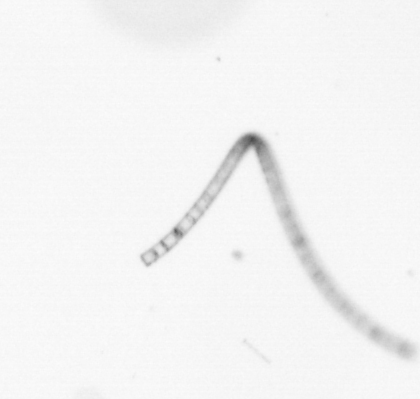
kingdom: Chromista
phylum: Ochrophyta
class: Bacillariophyceae
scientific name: Bacillariophyceae
